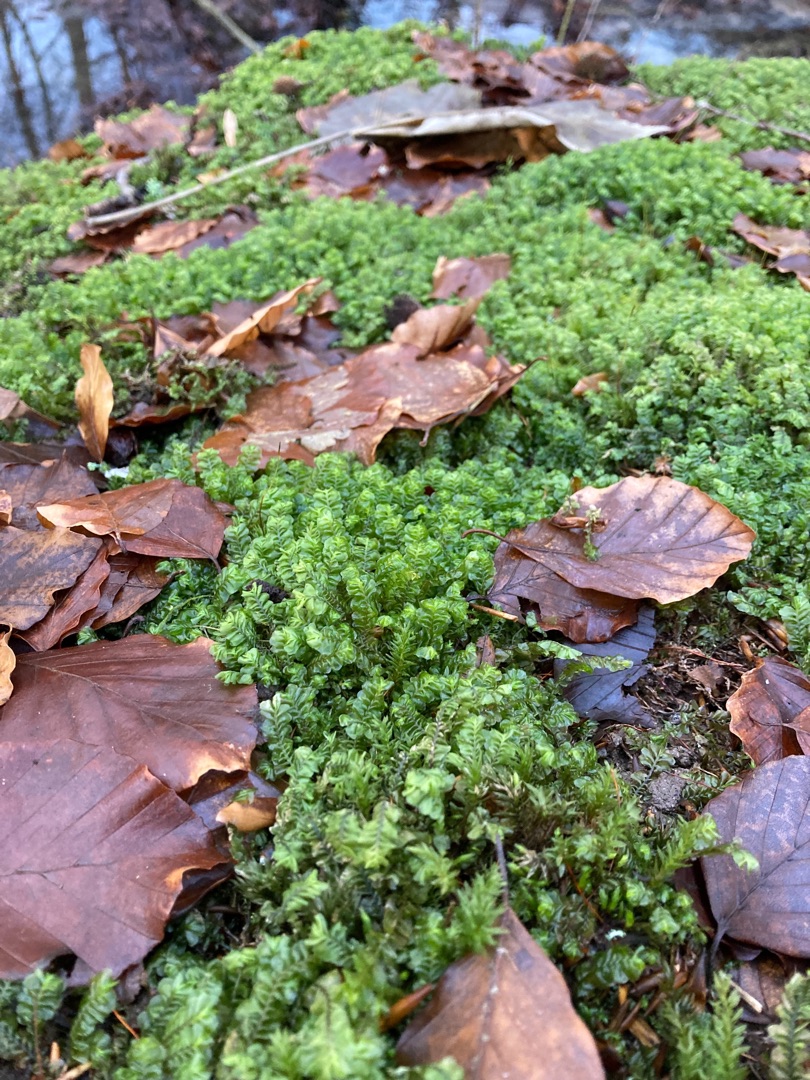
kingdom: Plantae
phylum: Marchantiophyta
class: Jungermanniopsida
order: Jungermanniales
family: Plagiochilaceae
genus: Plagiochila
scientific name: Plagiochila asplenioides
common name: Radeløv-hindeblad
